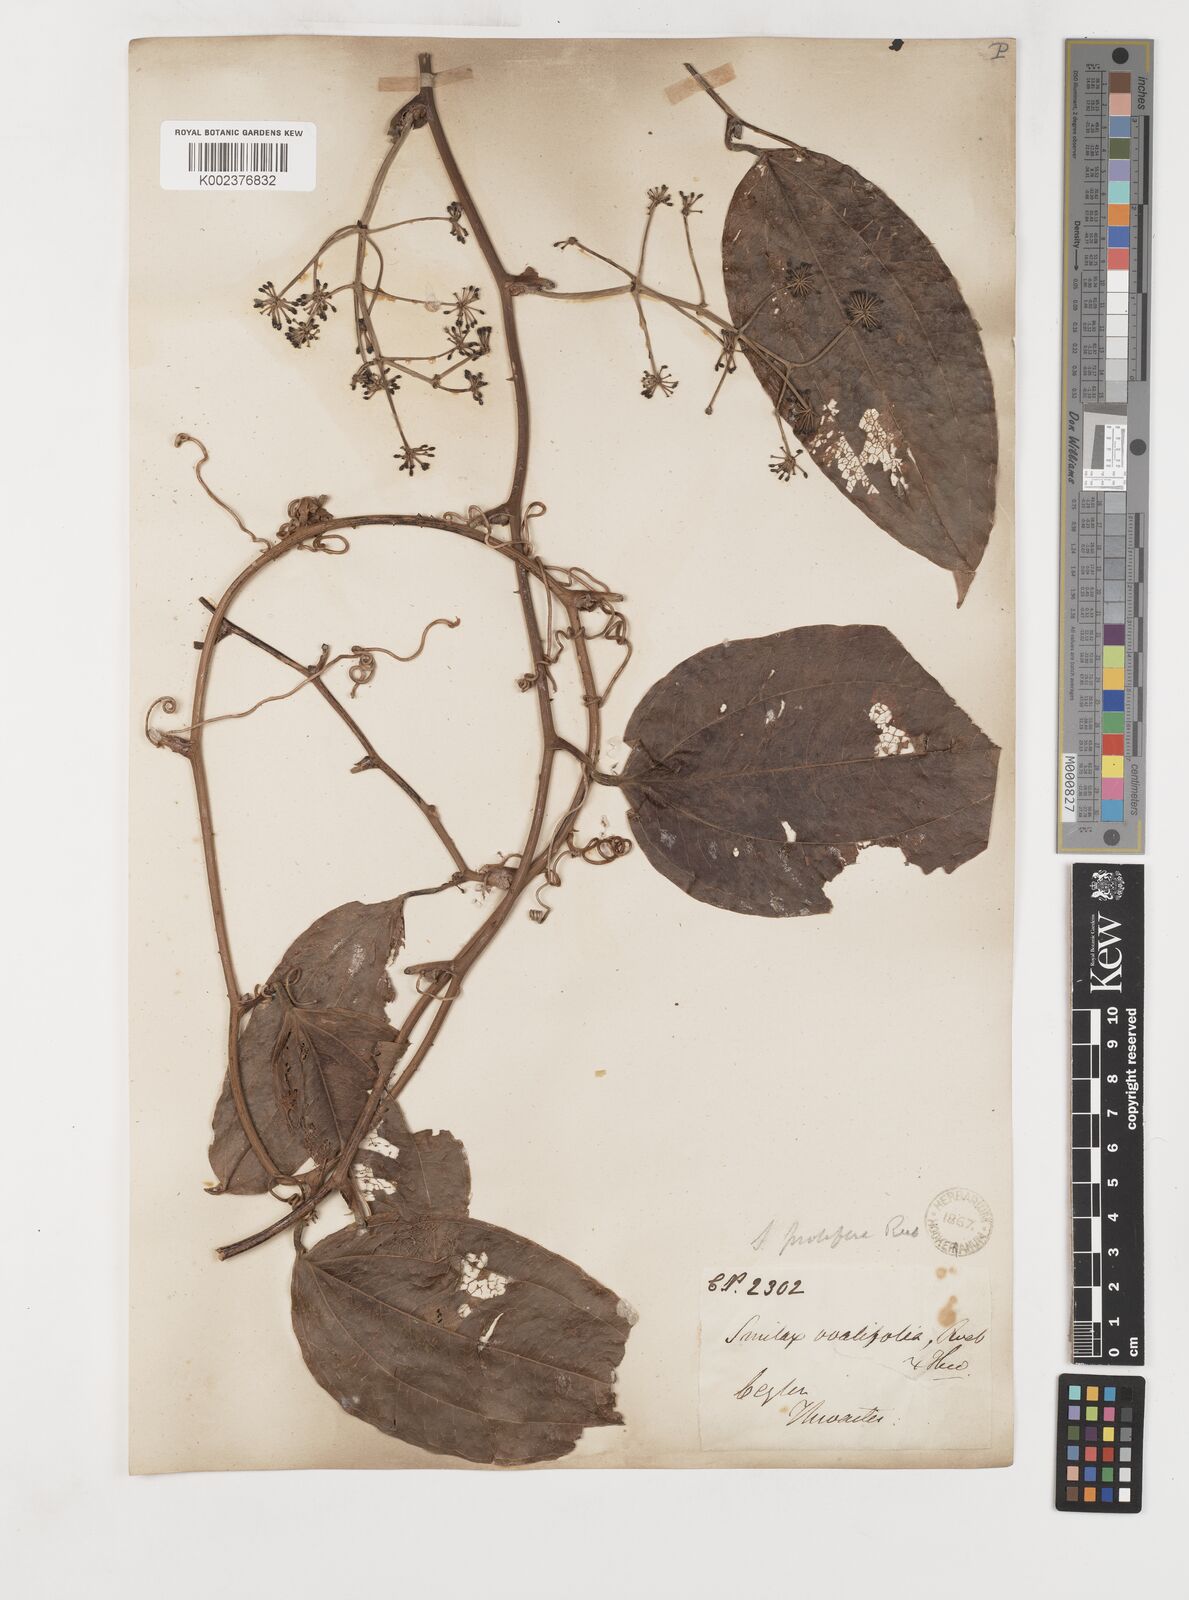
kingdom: Plantae
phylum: Tracheophyta
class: Liliopsida
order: Liliales
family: Smilacaceae
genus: Smilax
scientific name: Smilax prolifera
